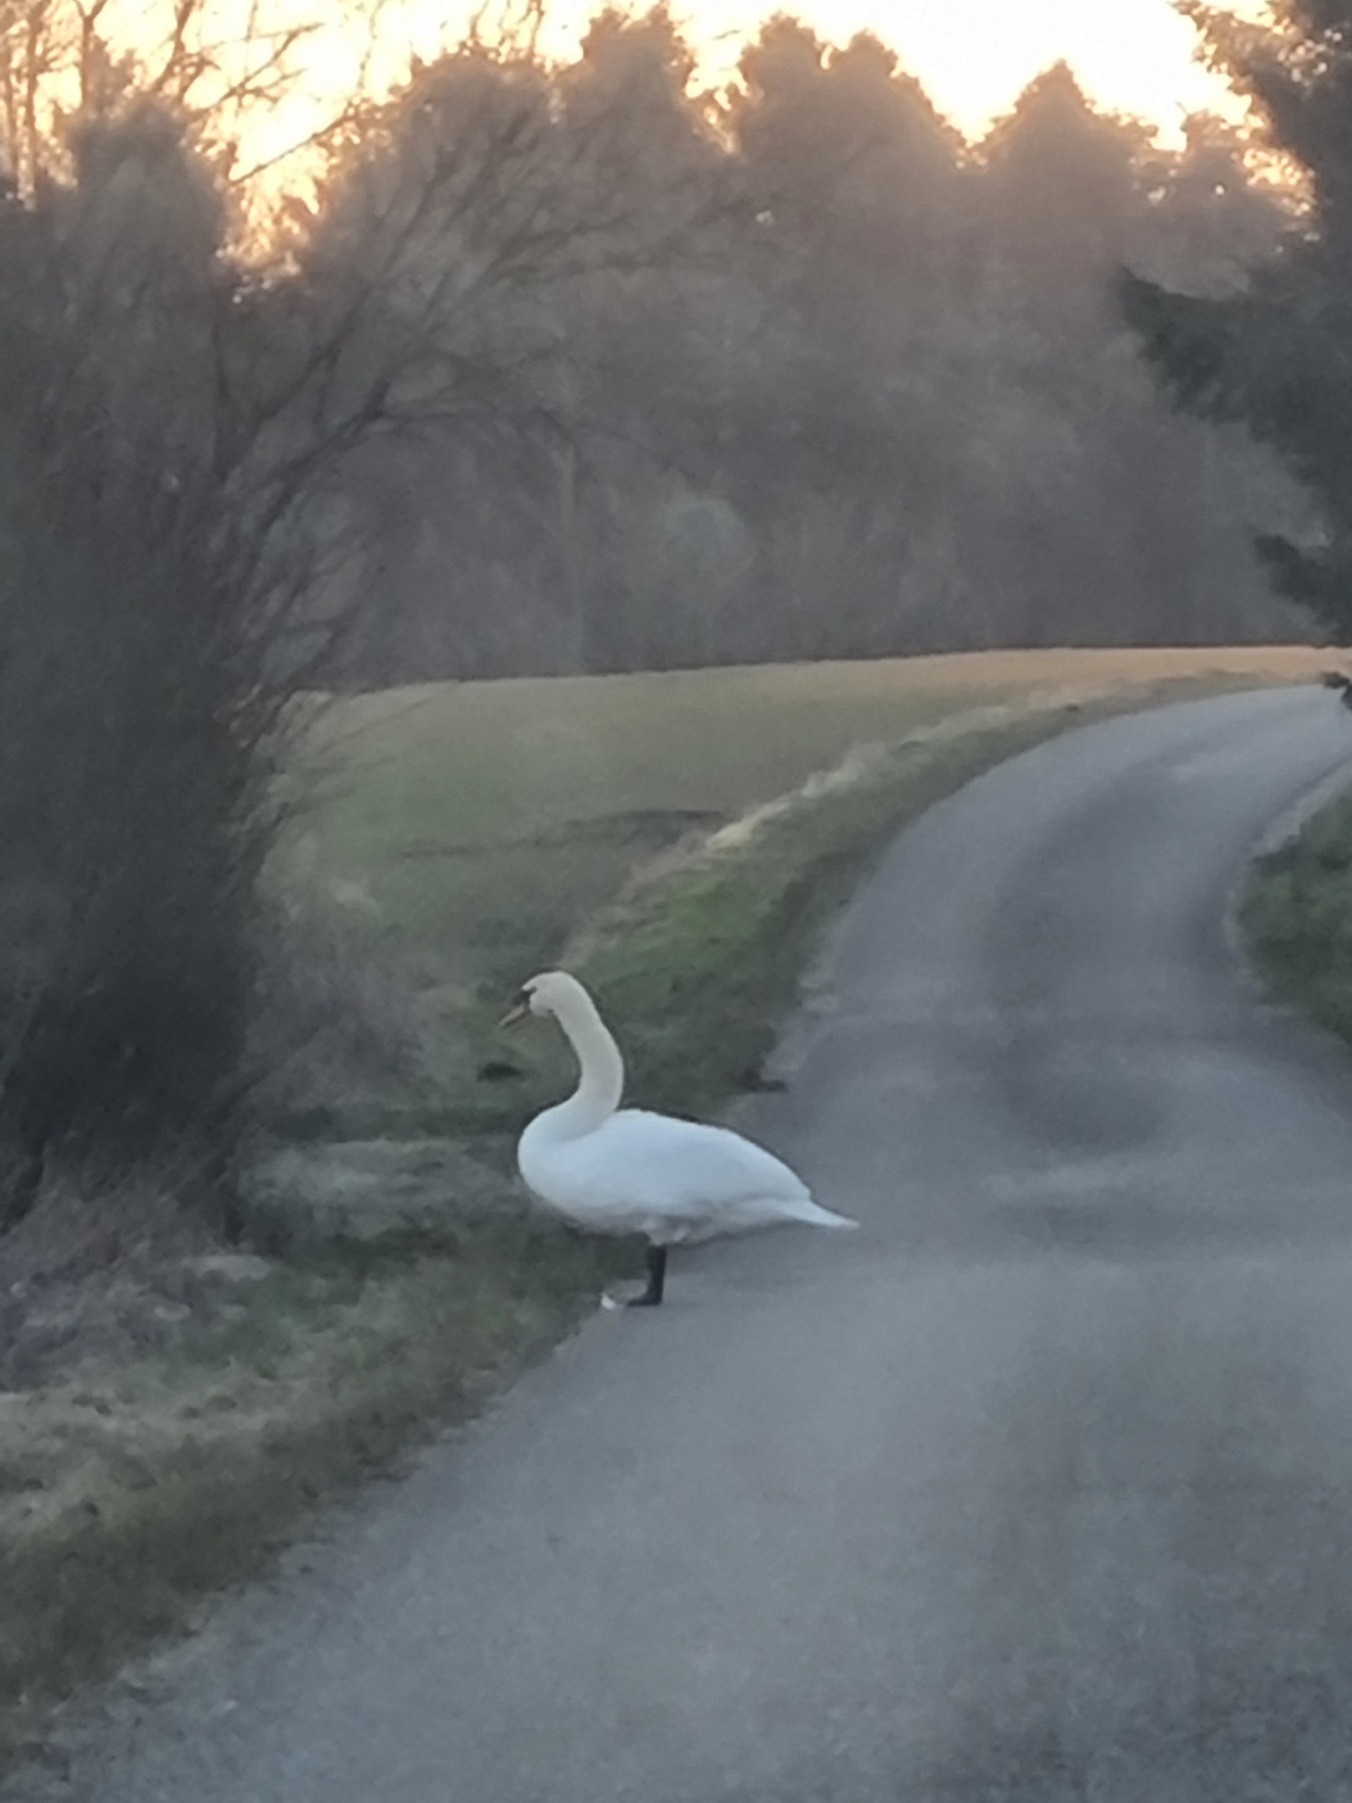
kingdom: Animalia
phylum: Chordata
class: Aves
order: Anseriformes
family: Anatidae
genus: Cygnus
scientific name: Cygnus olor
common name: Knopsvane
